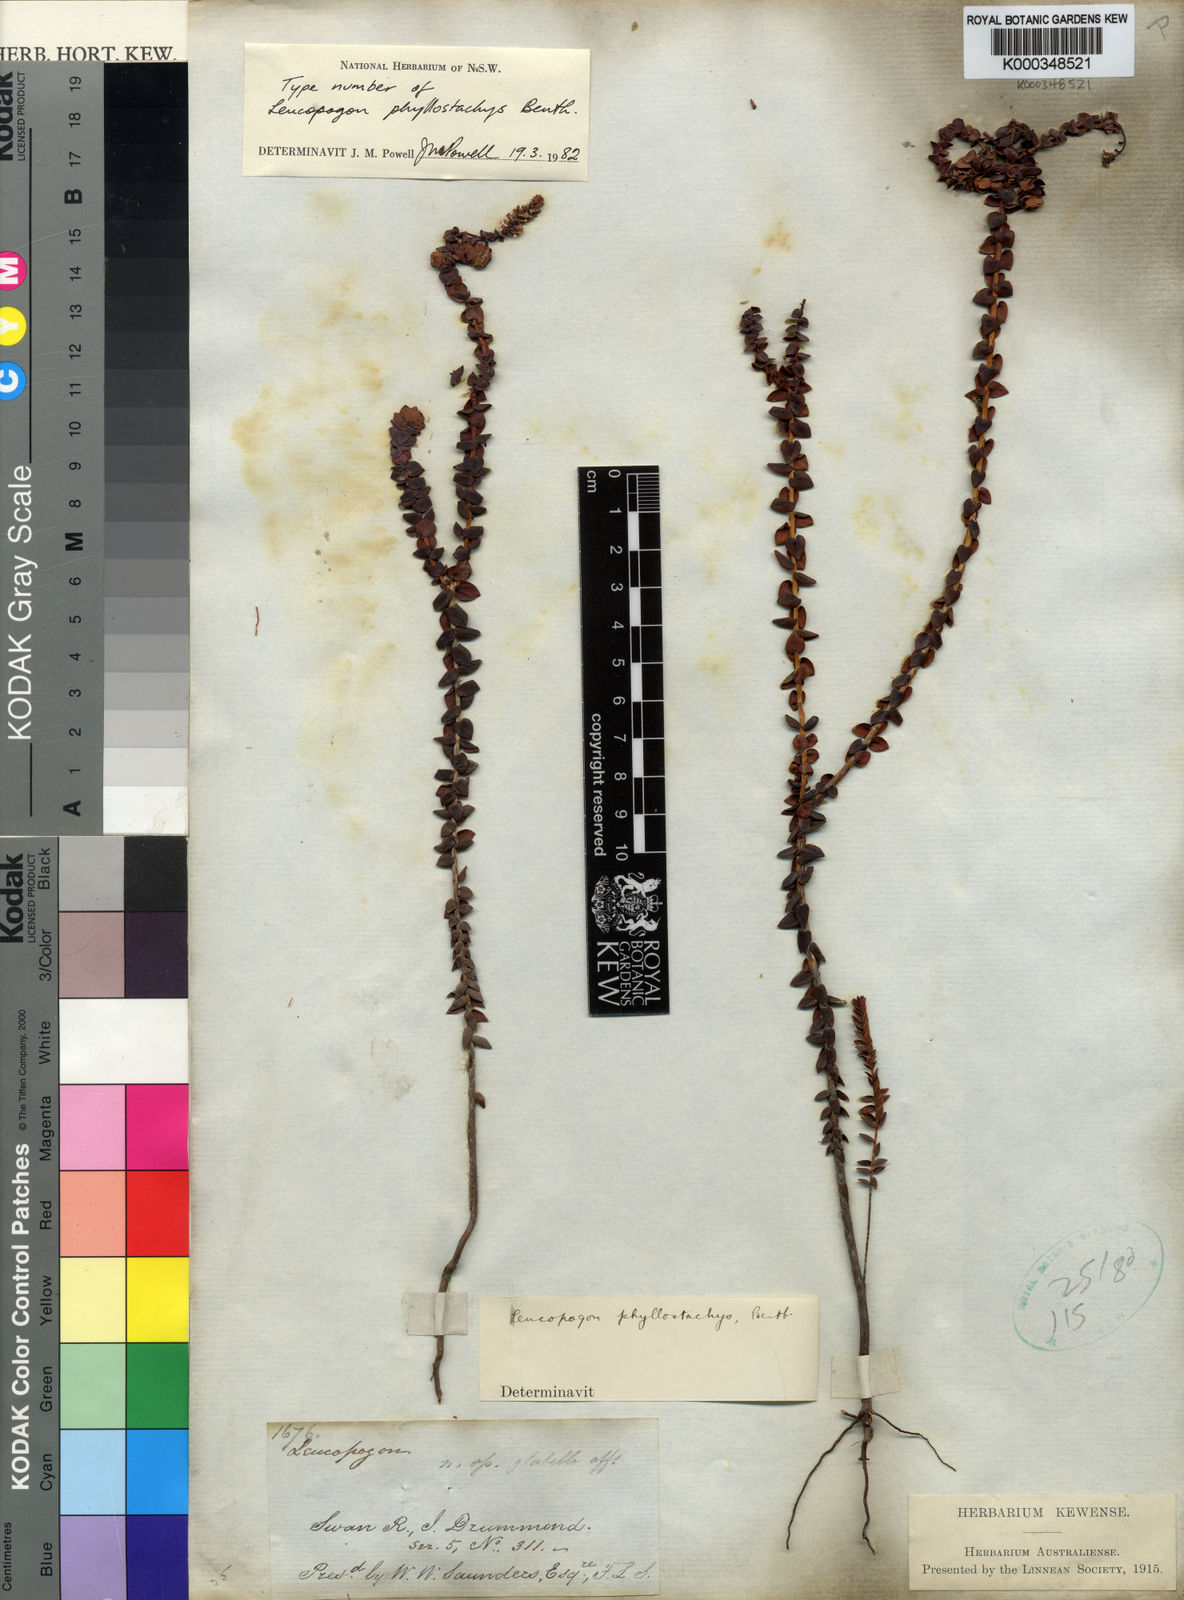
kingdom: Plantae
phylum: Tracheophyta
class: Magnoliopsida
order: Ericales
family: Ericaceae
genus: Leucopogon
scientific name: Leucopogon phyllostachys
